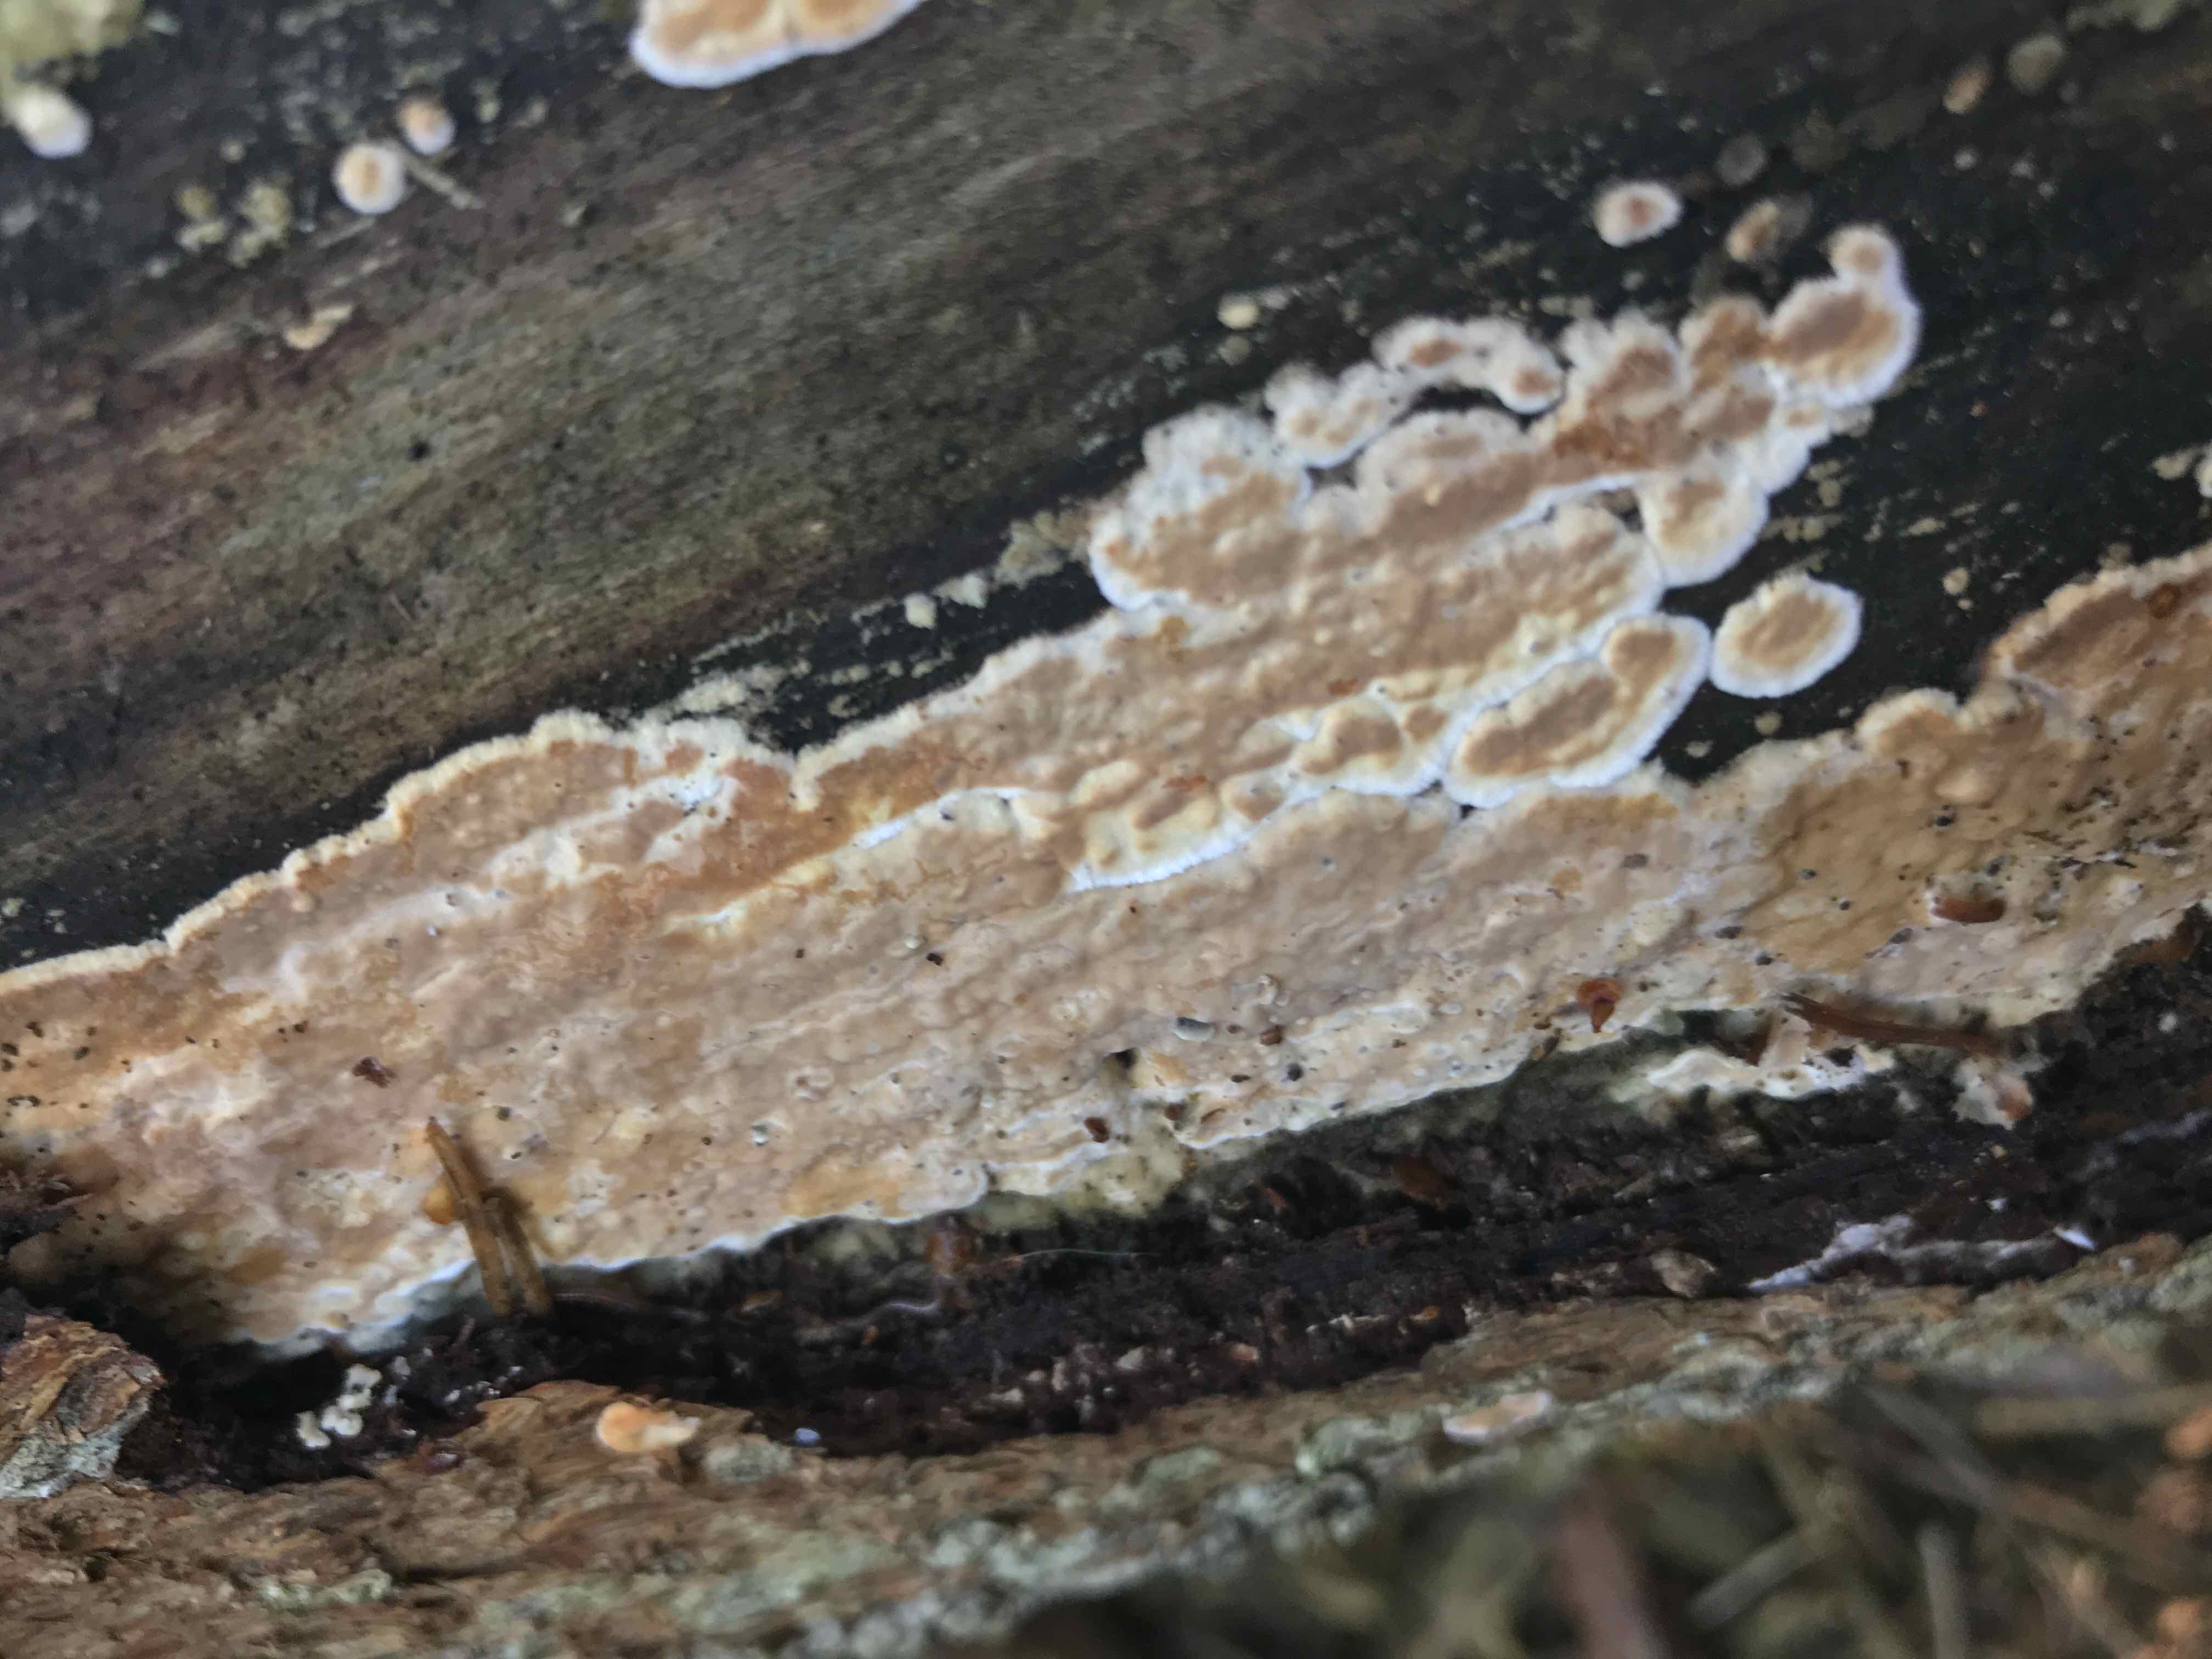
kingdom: Fungi
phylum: Basidiomycota
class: Agaricomycetes
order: Agaricales
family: Physalacriaceae
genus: Cylindrobasidium
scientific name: Cylindrobasidium evolvens
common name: sprækkehinde
